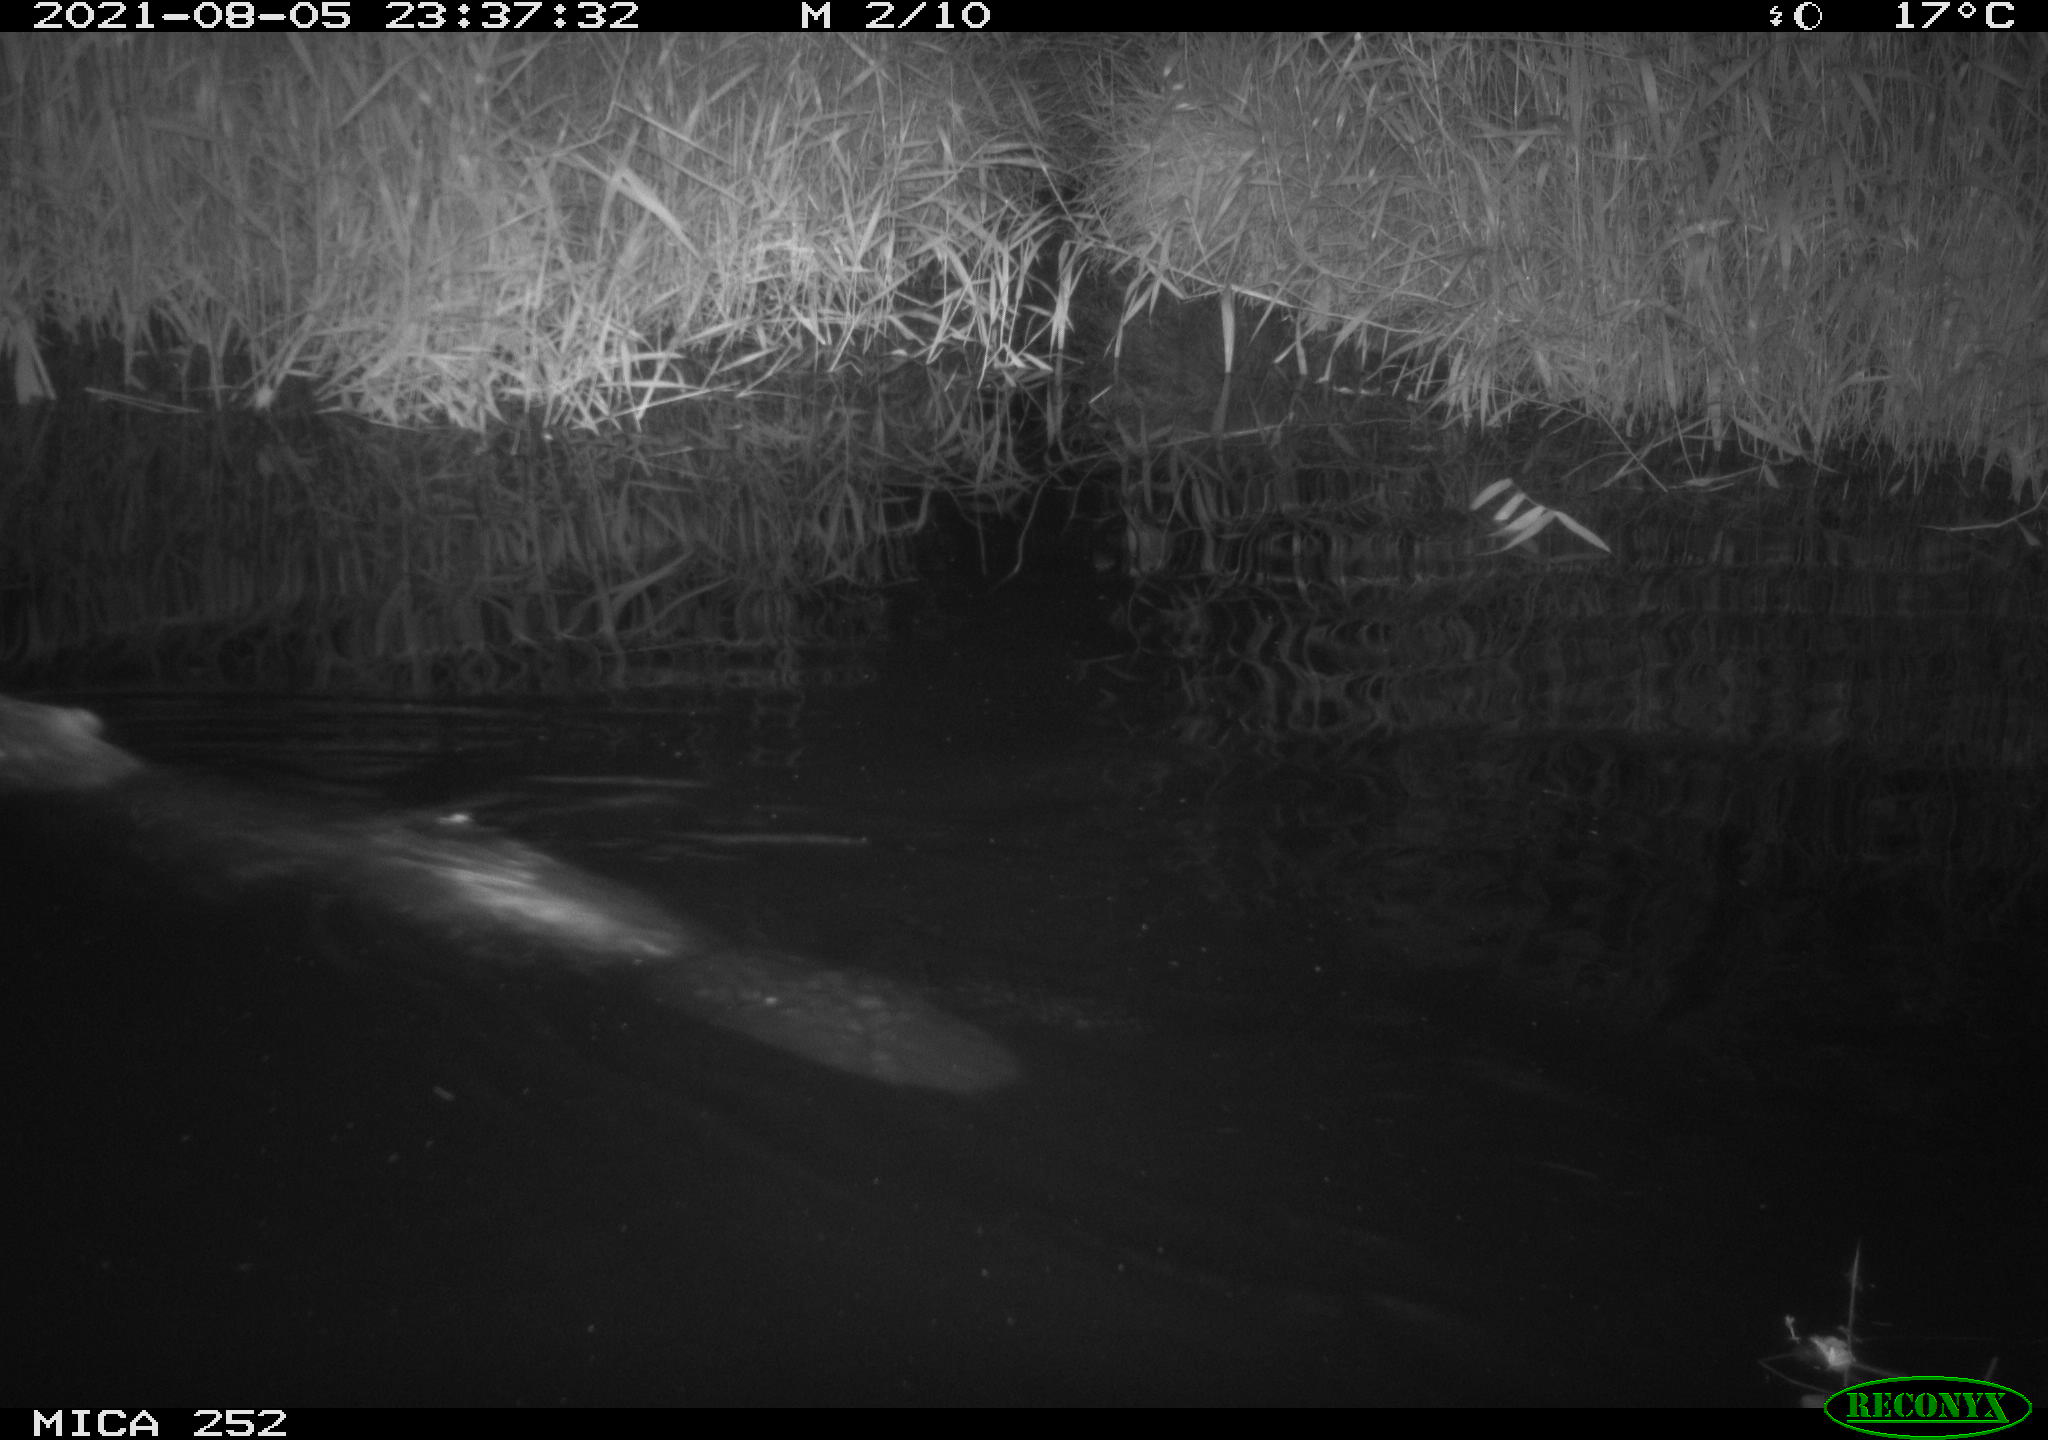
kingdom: Animalia
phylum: Chordata
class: Mammalia
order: Rodentia
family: Castoridae
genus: Castor
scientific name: Castor fiber
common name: Eurasian beaver
